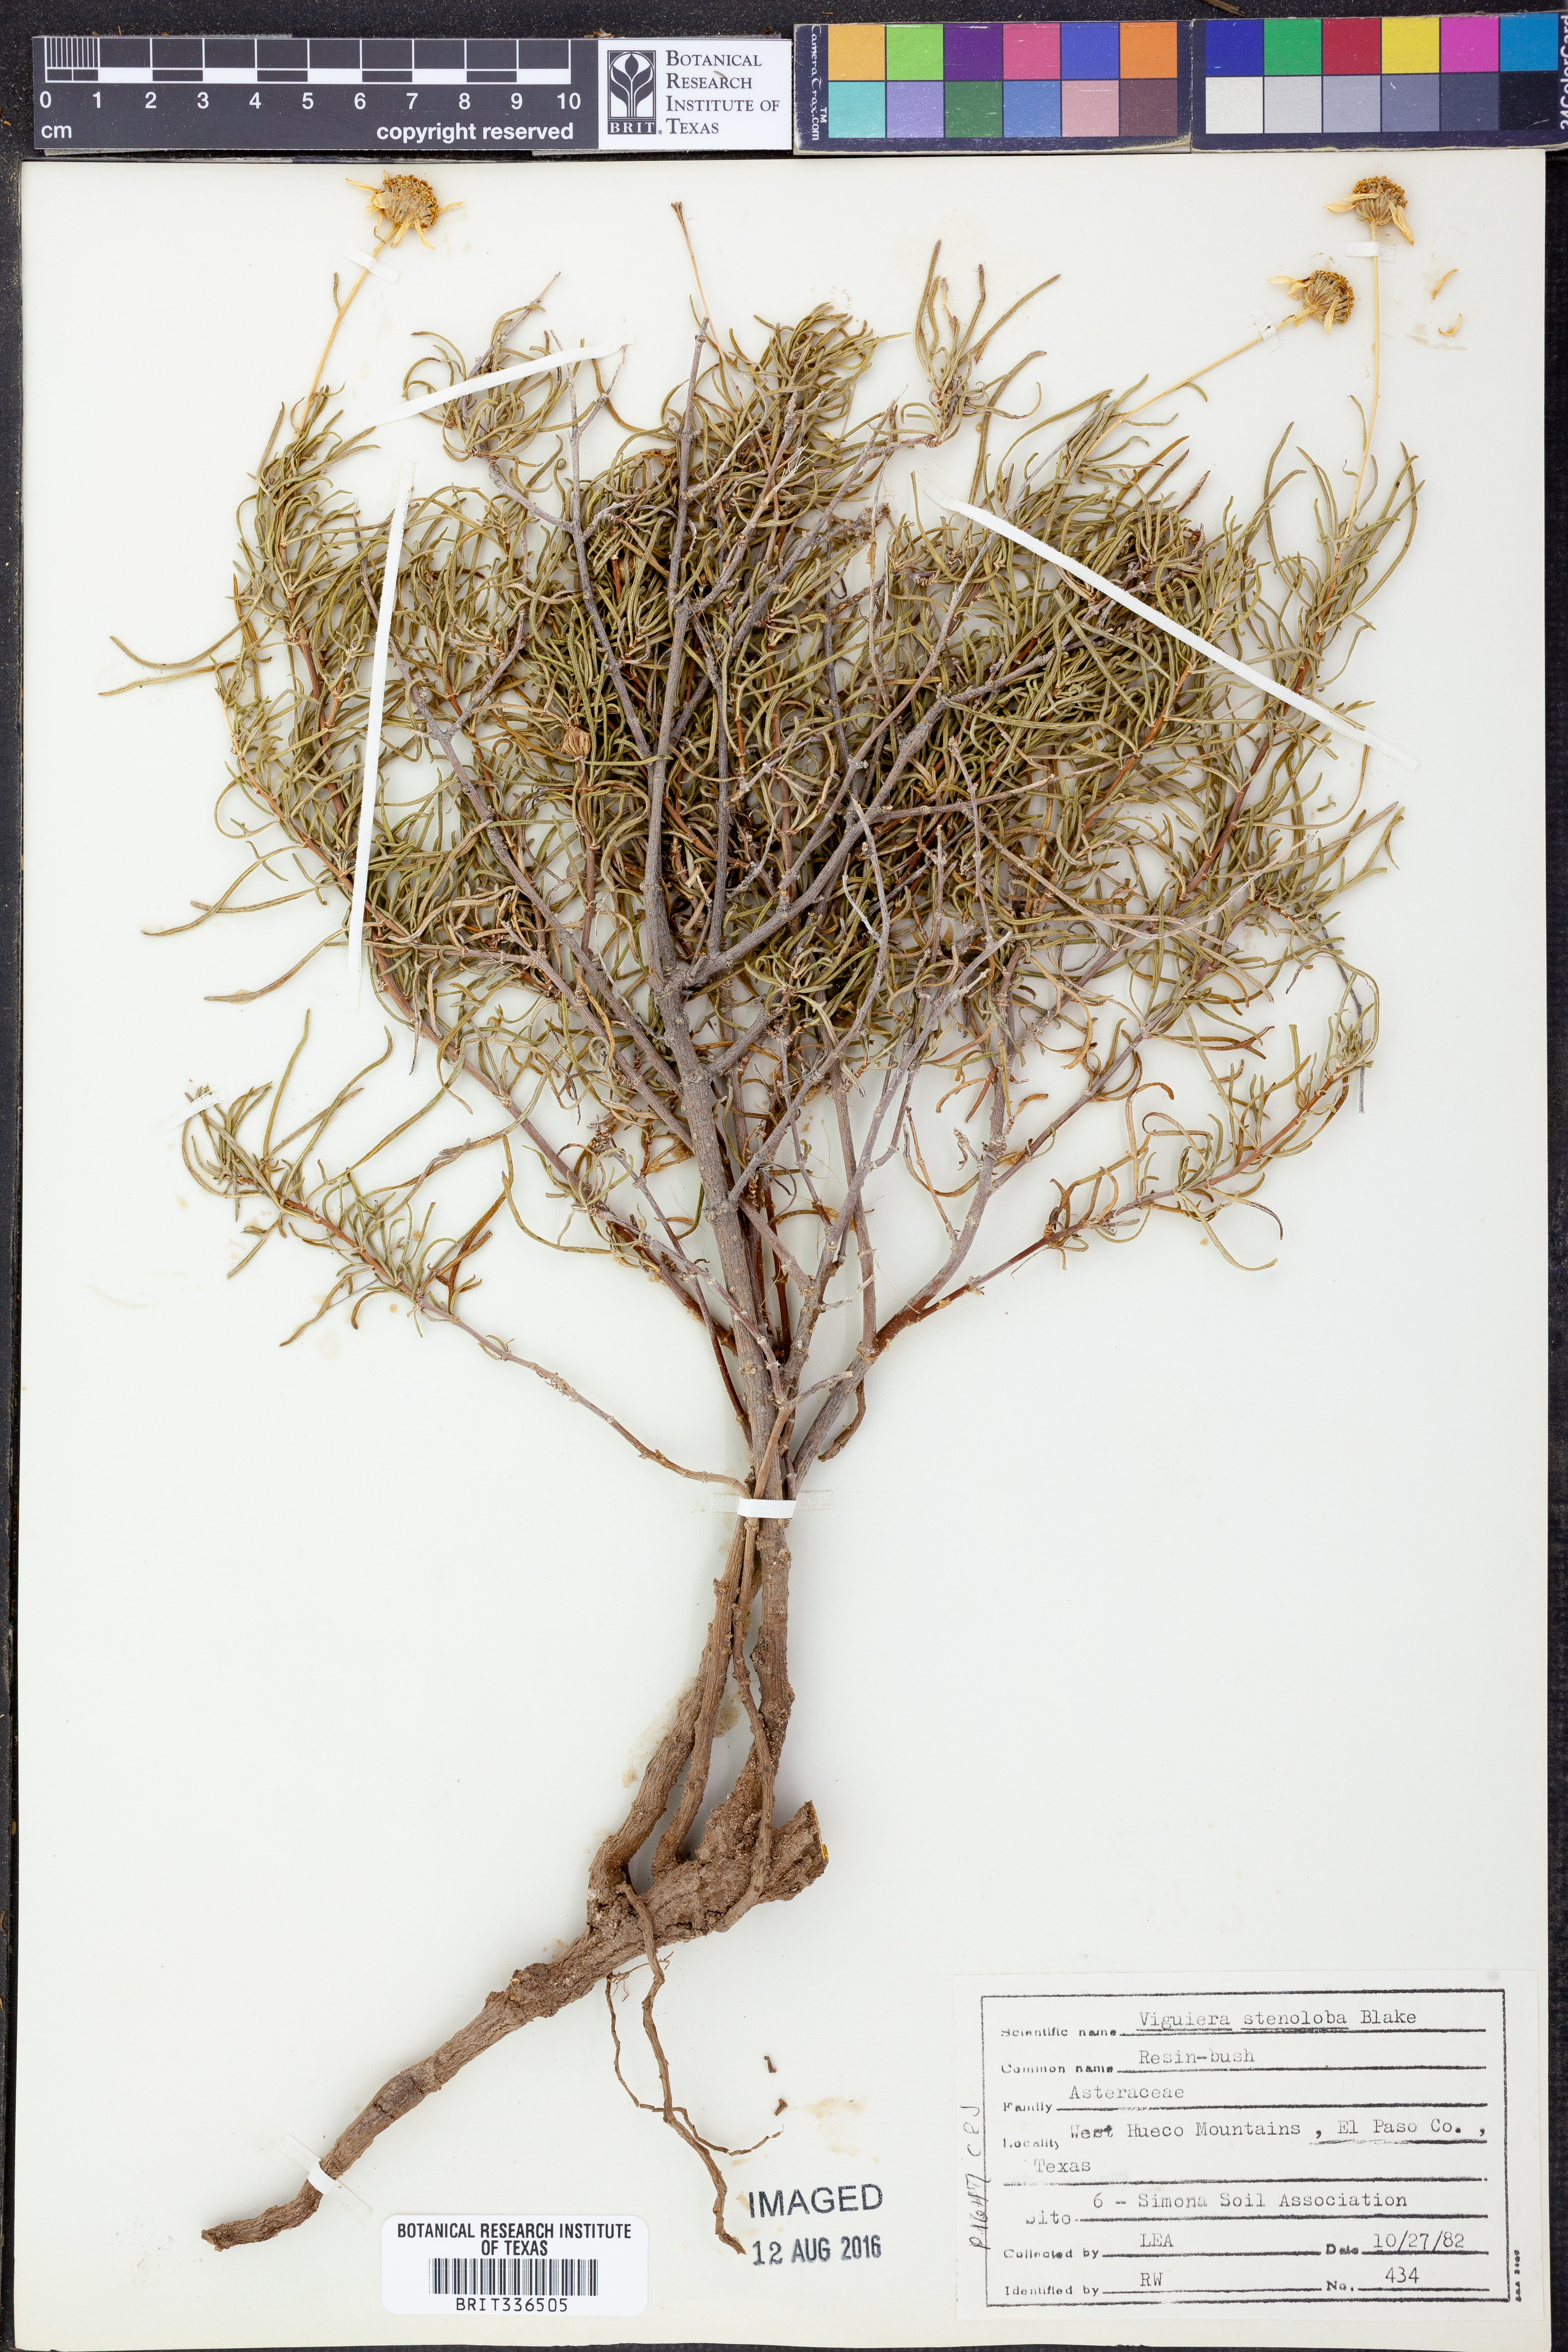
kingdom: Plantae
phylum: Tracheophyta
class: Magnoliopsida
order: Asterales
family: Asteraceae
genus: Sidneya
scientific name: Sidneya tenuifolia
